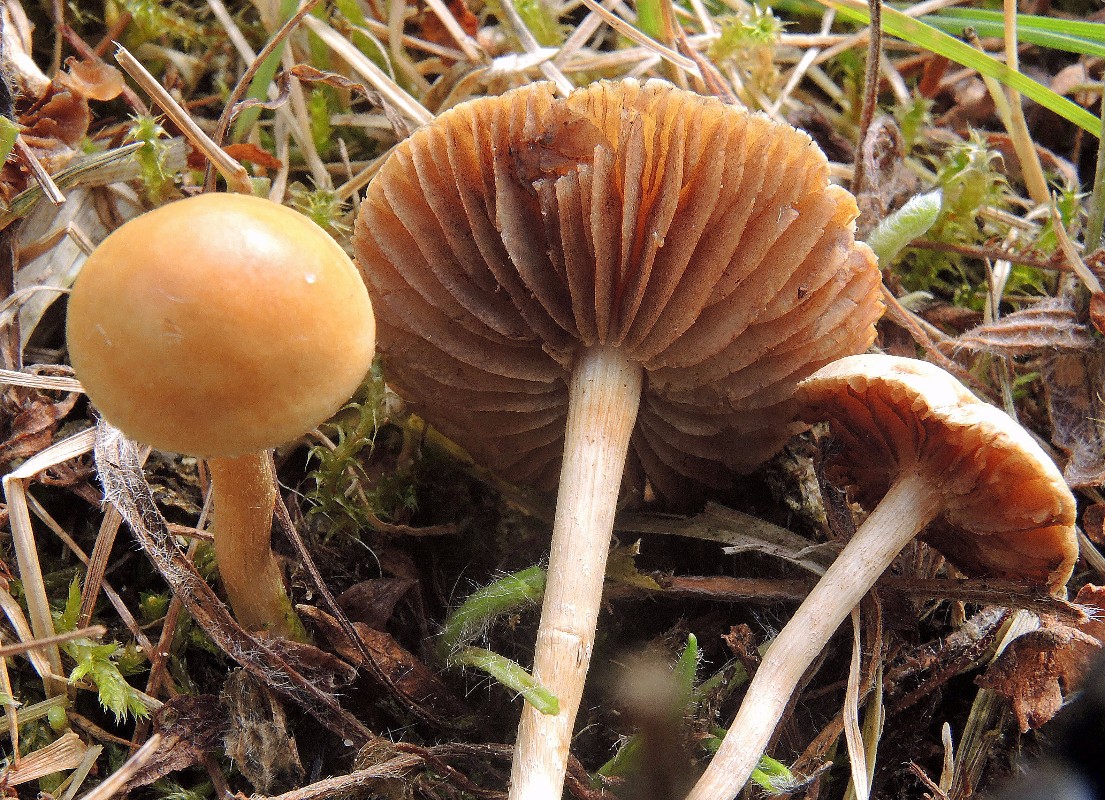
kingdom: Fungi
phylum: Basidiomycota
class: Agaricomycetes
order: Agaricales
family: Strophariaceae
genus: Agrocybe
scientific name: Agrocybe pediades
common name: almindelig agerhat
